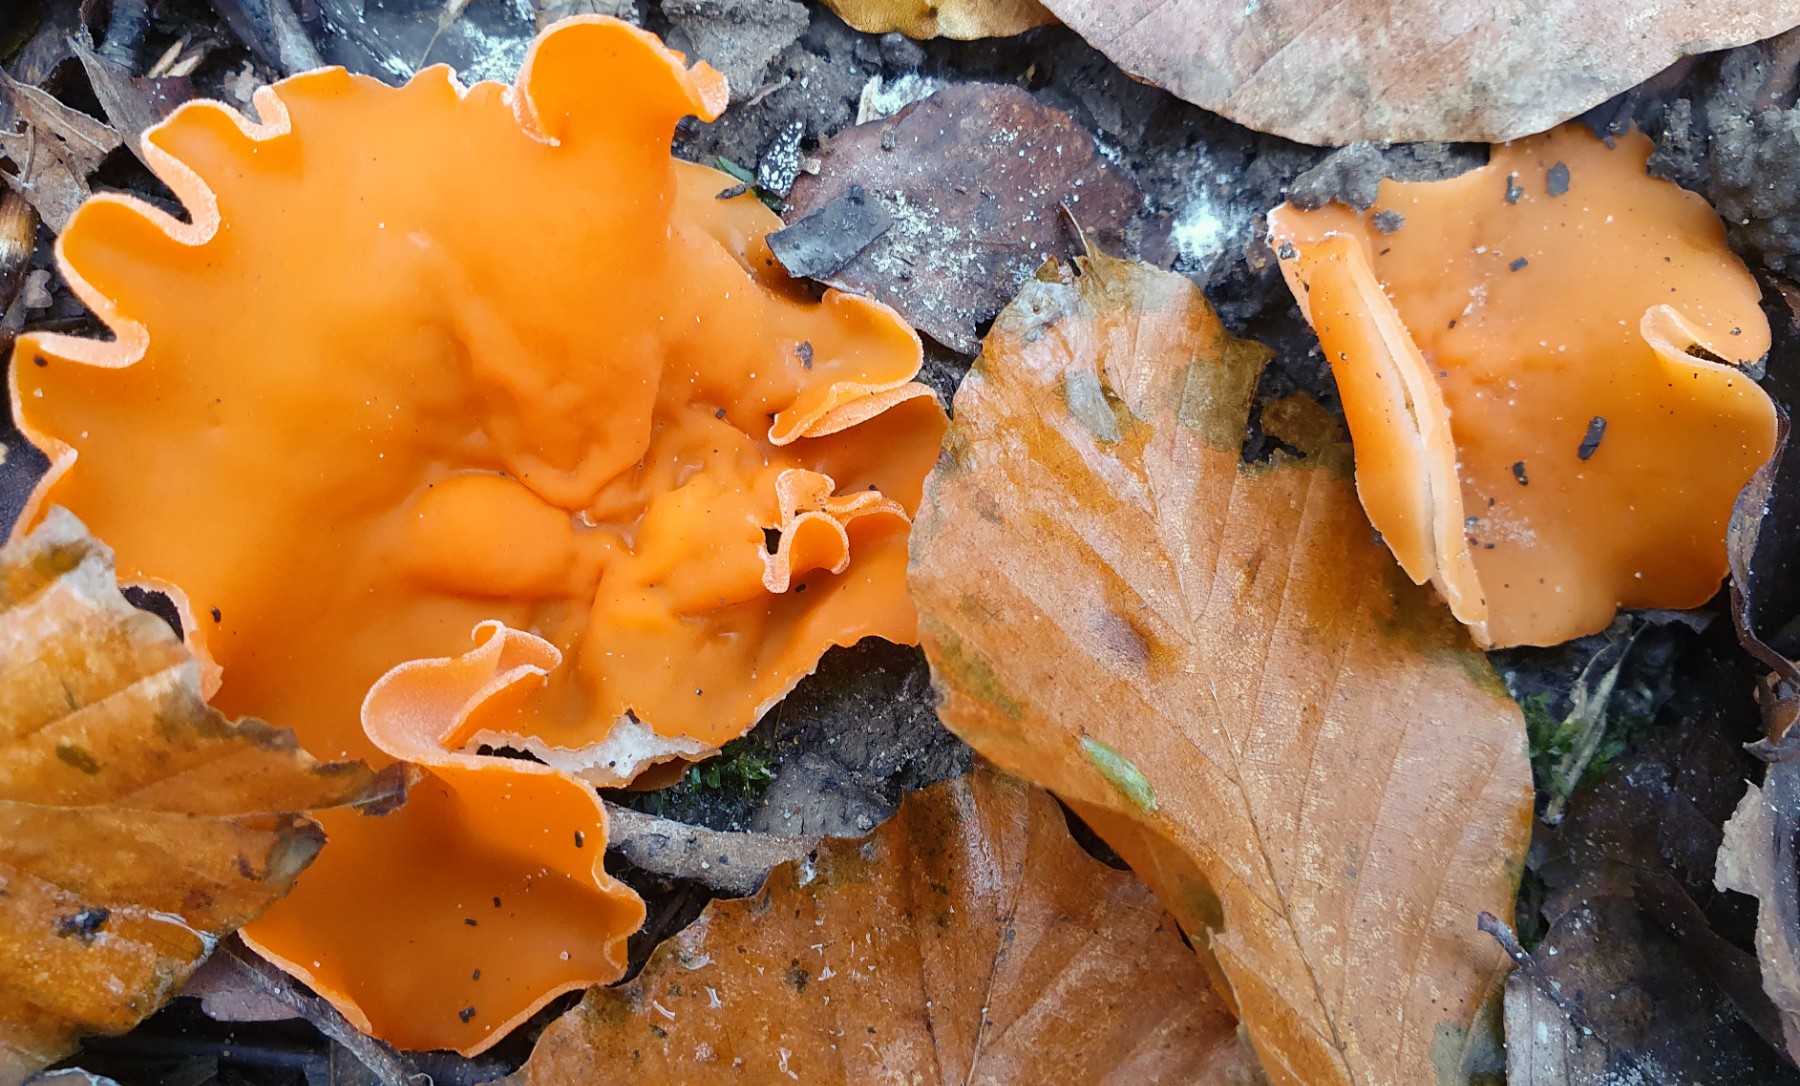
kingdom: Fungi
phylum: Ascomycota
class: Pezizomycetes
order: Pezizales
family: Pyronemataceae
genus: Aleuria
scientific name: Aleuria aurantia
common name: almindelig orangebæger
